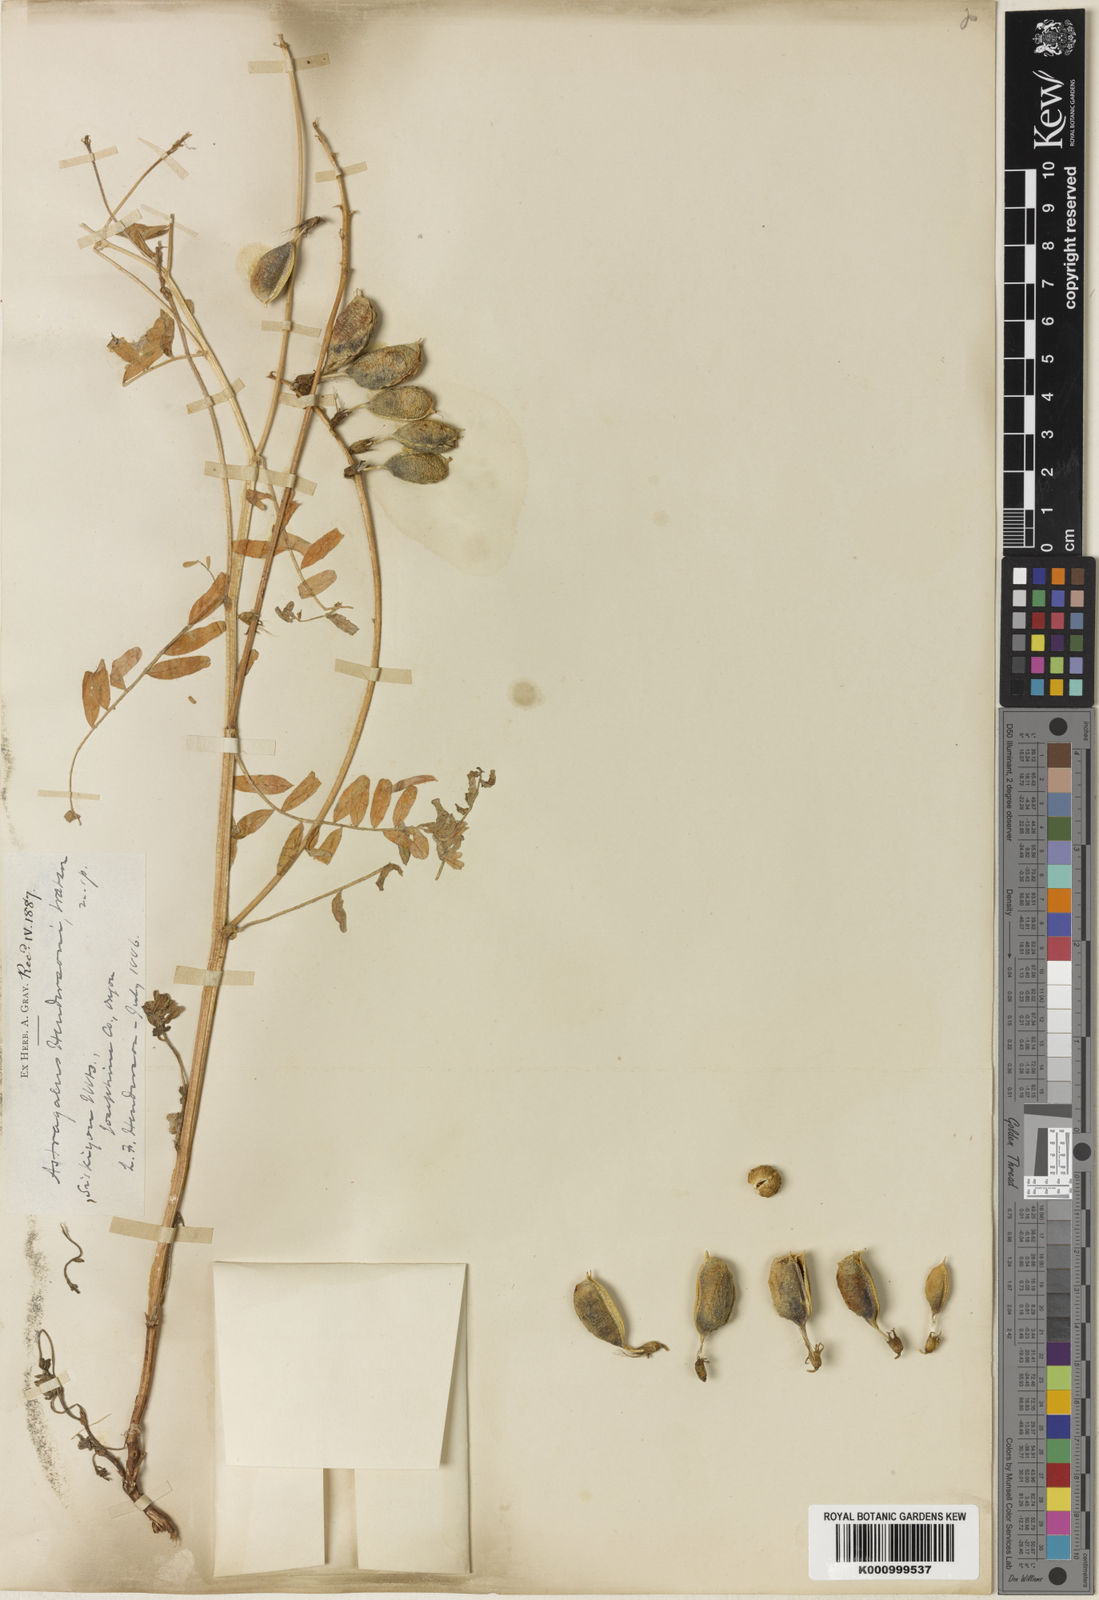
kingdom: Plantae
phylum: Tracheophyta
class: Magnoliopsida
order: Fabales
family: Fabaceae
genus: Astragalus
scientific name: Astragalus accidens
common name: Rogue river milkvetch
